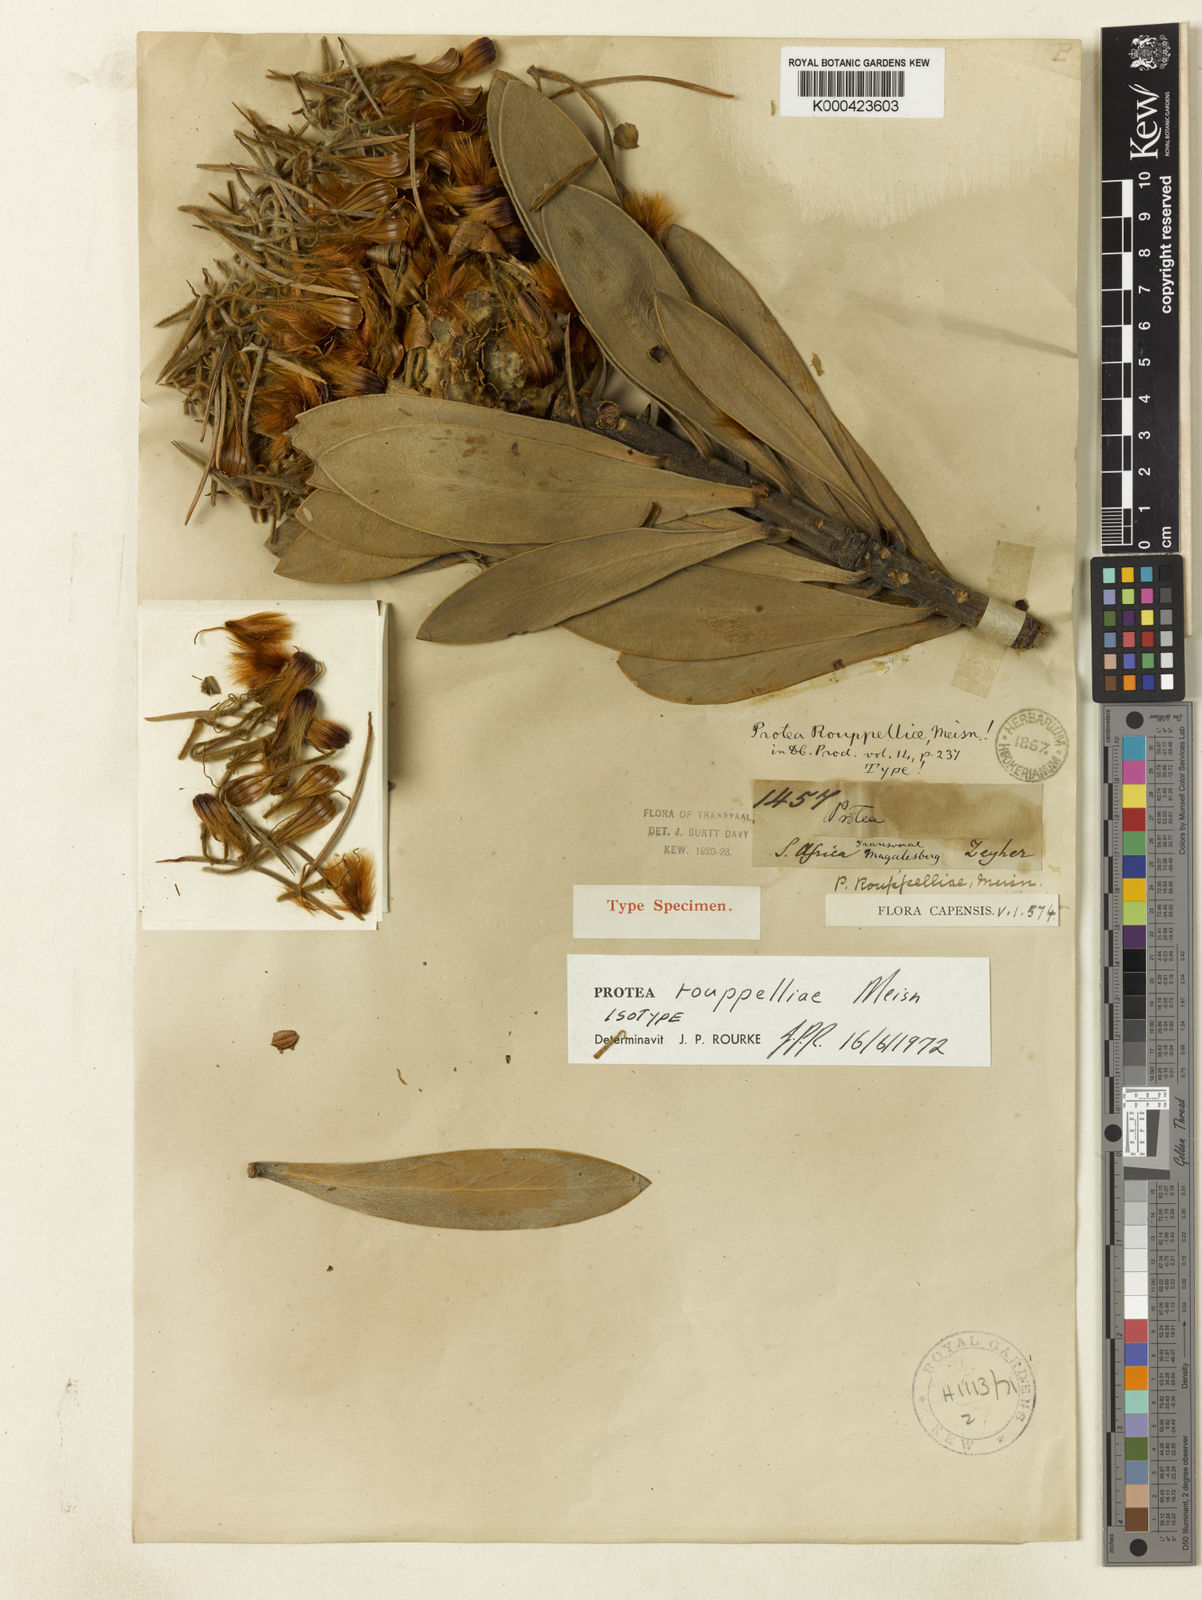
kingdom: Plantae
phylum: Tracheophyta
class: Magnoliopsida
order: Proteales
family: Proteaceae
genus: Protea
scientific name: Protea roupelliae
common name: Silver sugarbush
